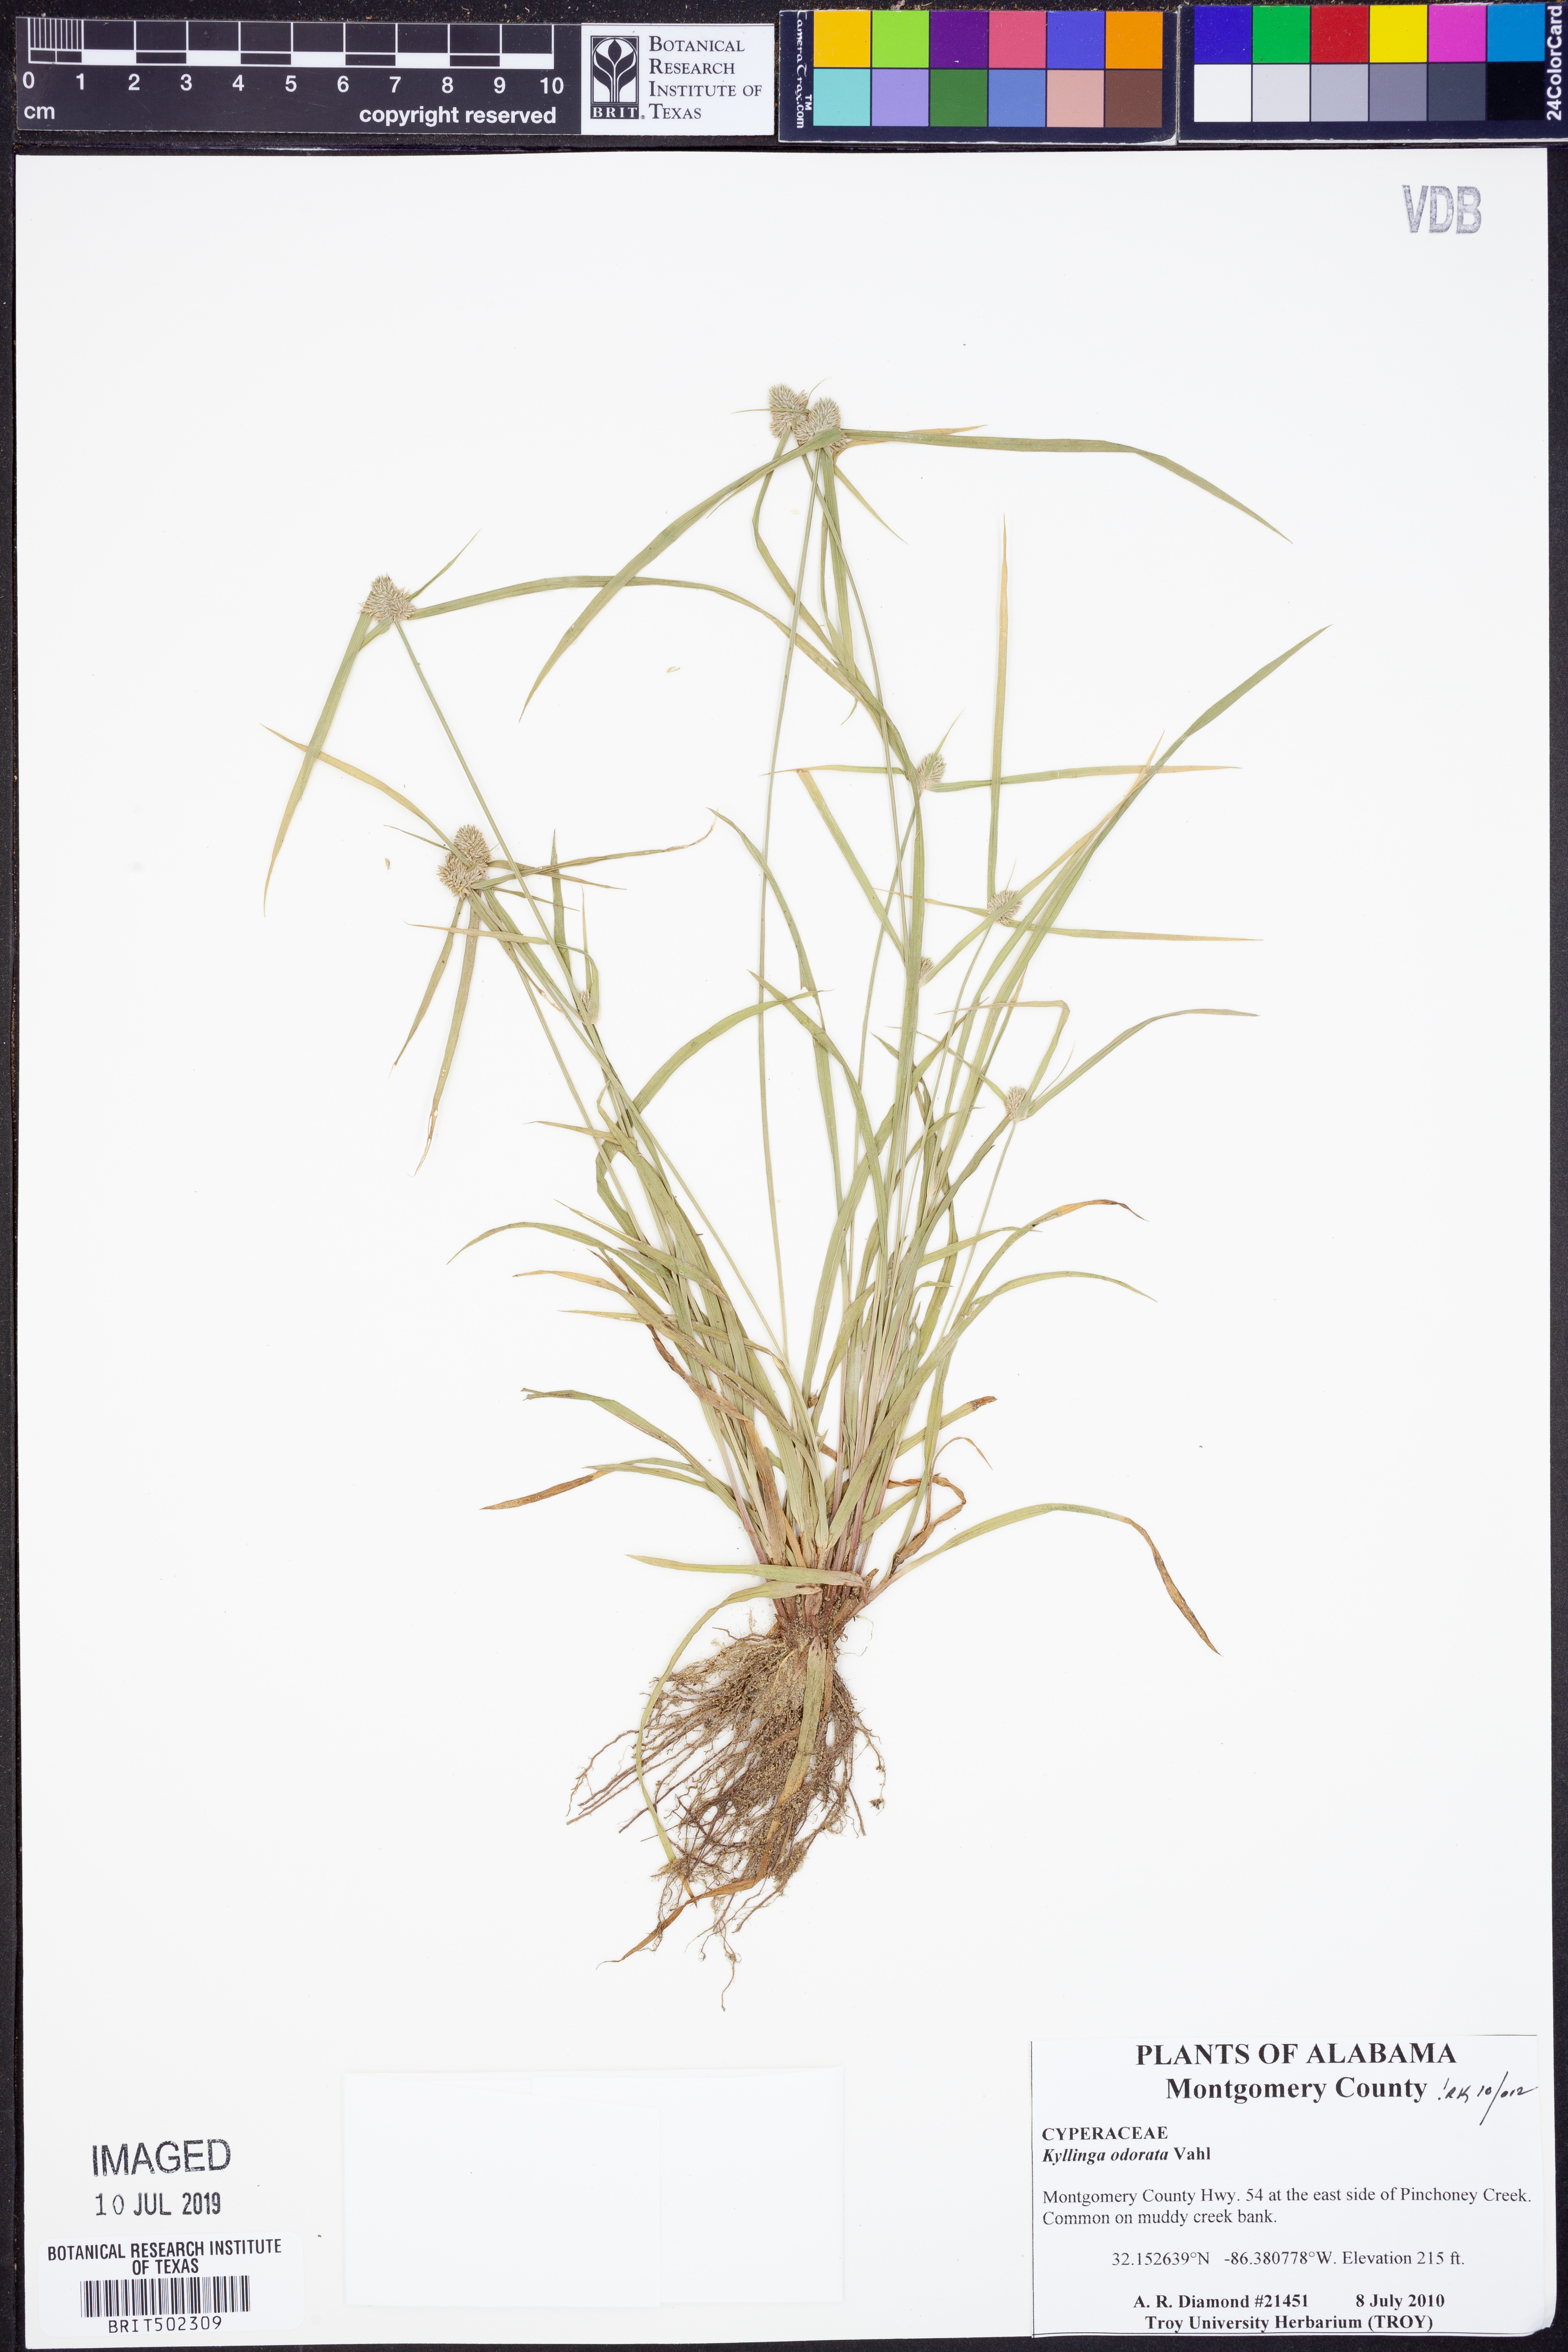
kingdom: Plantae
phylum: Tracheophyta
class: Liliopsida
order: Poales
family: Cyperaceae
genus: Cyperus
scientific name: Cyperus sesquiflorus
